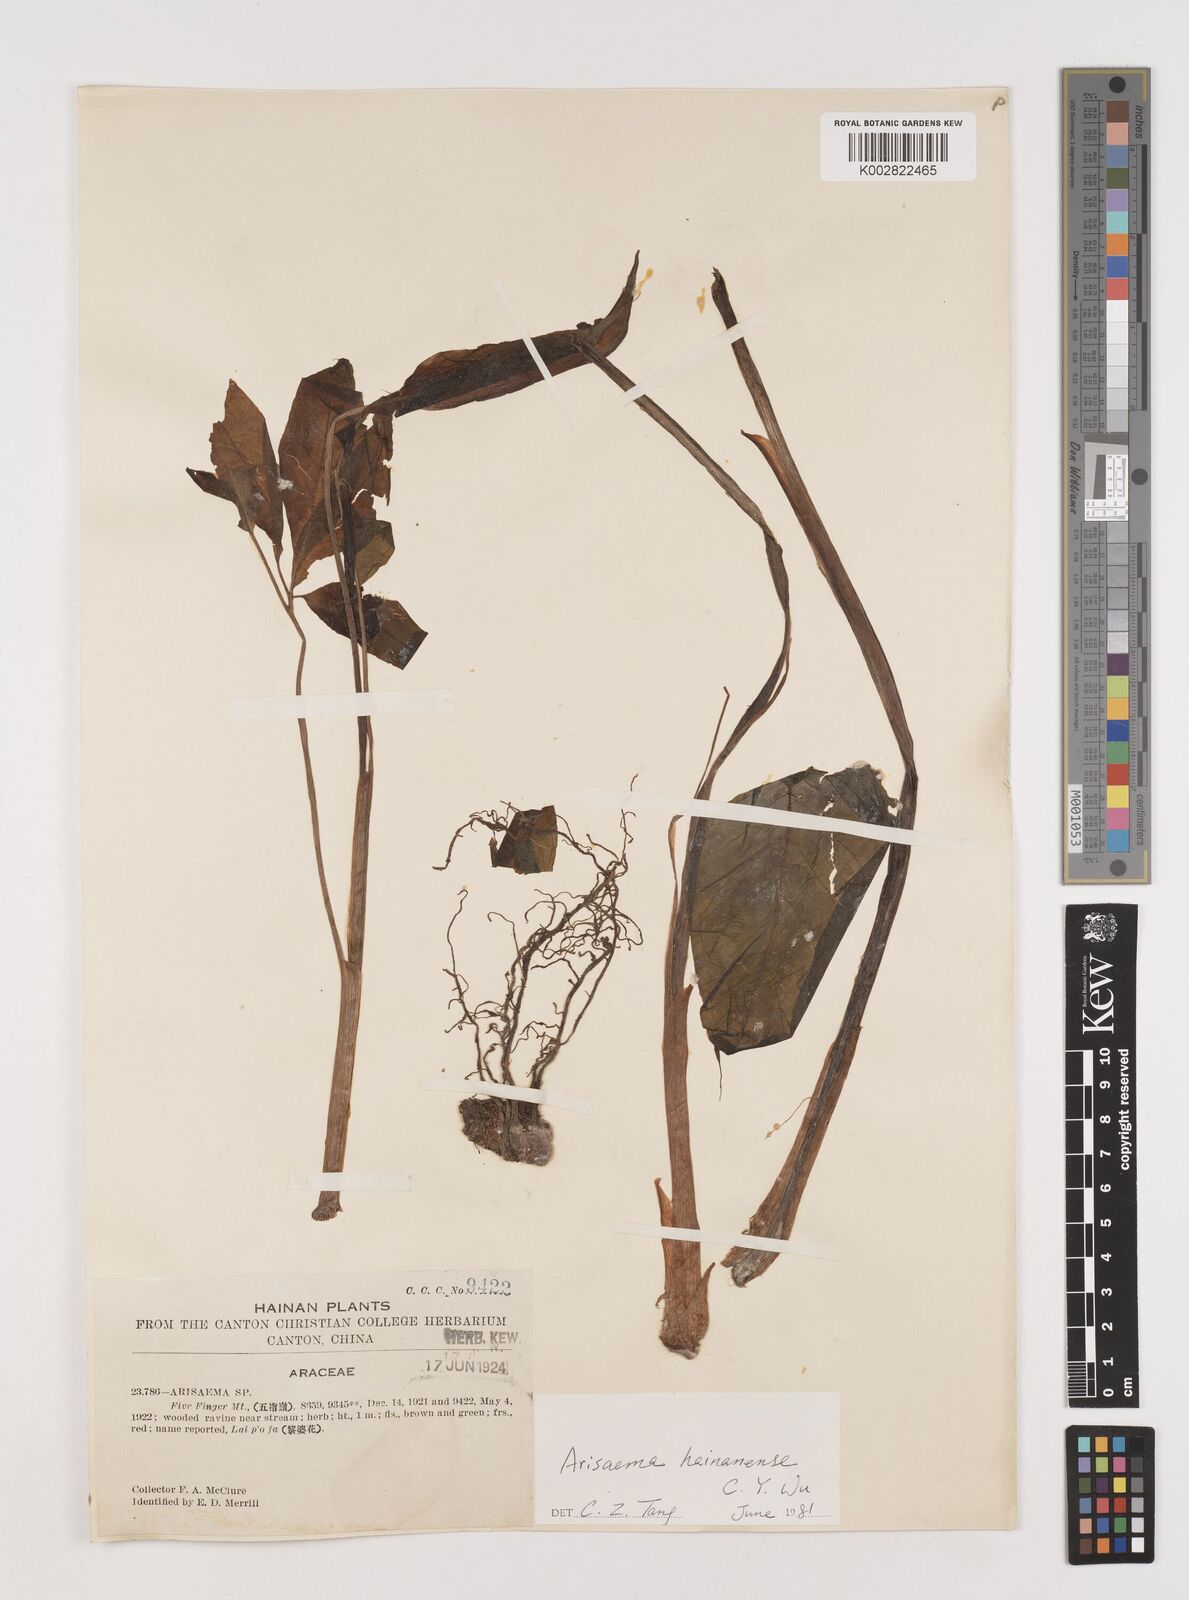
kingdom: Plantae
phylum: Tracheophyta
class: Liliopsida
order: Alismatales
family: Araceae
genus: Arisaema
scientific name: Arisaema hainanense
